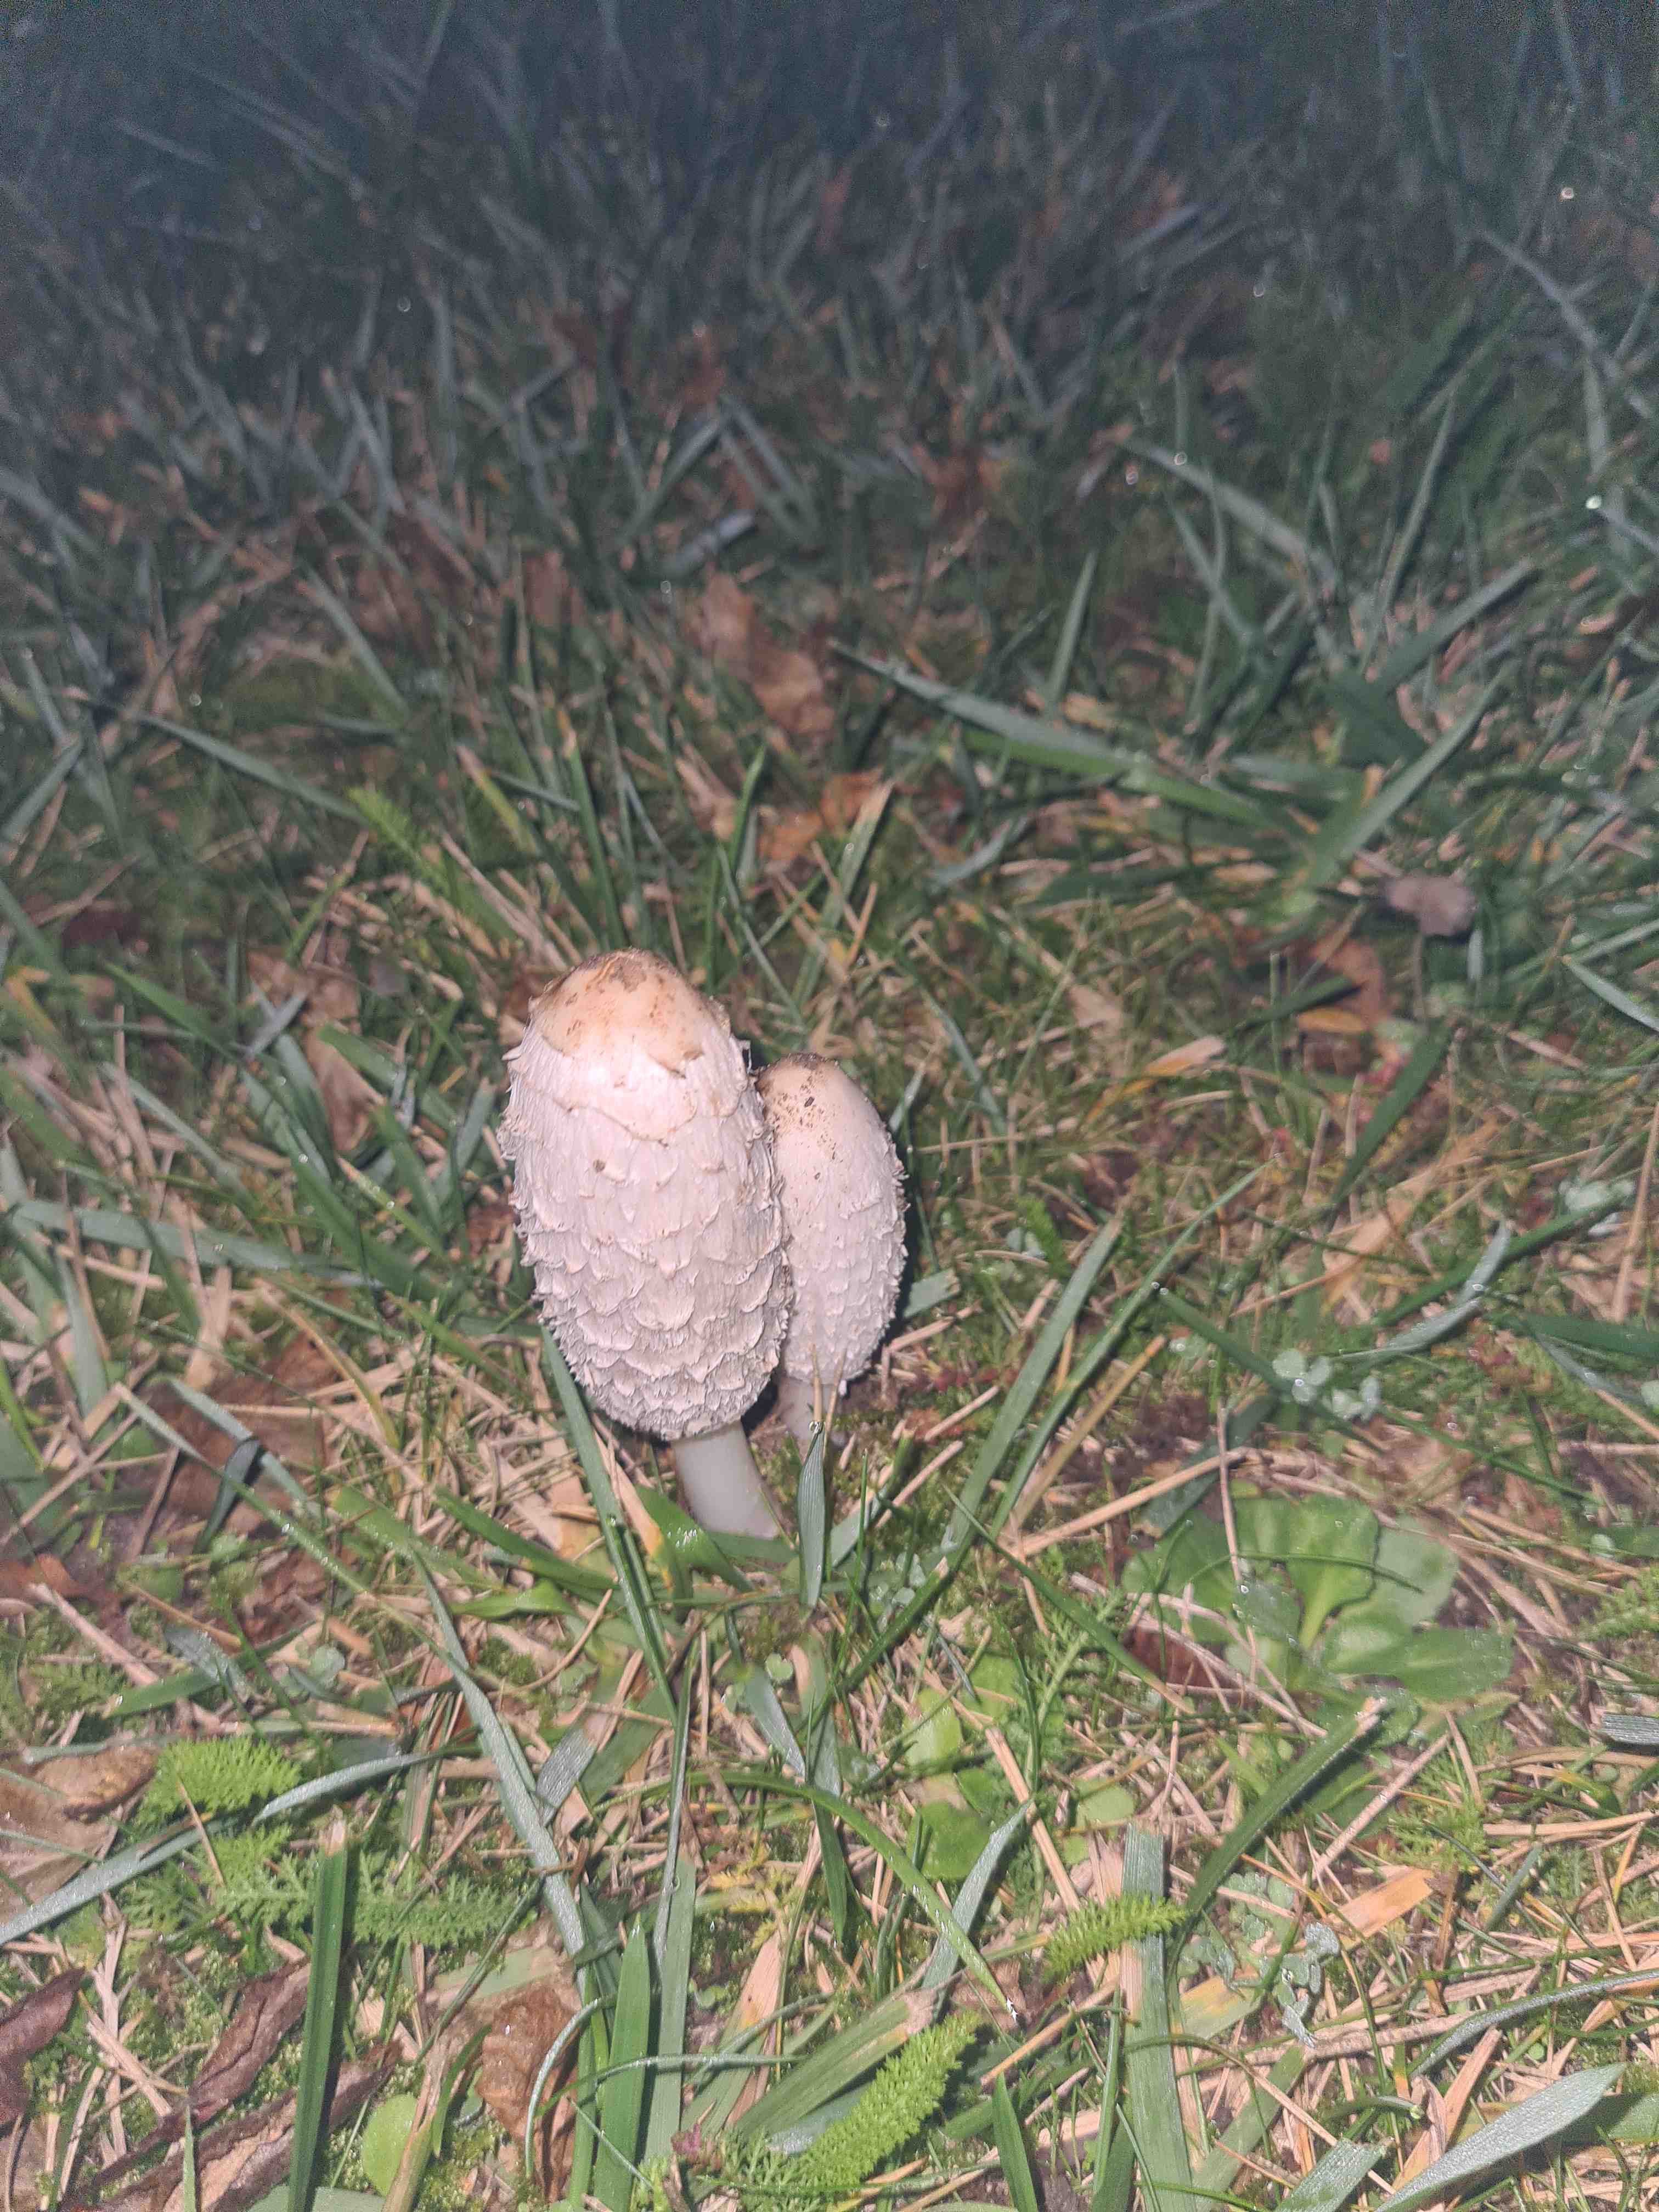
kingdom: Fungi
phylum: Basidiomycota
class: Agaricomycetes
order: Agaricales
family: Agaricaceae
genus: Coprinus
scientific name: Coprinus comatus
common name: stor parykhat
